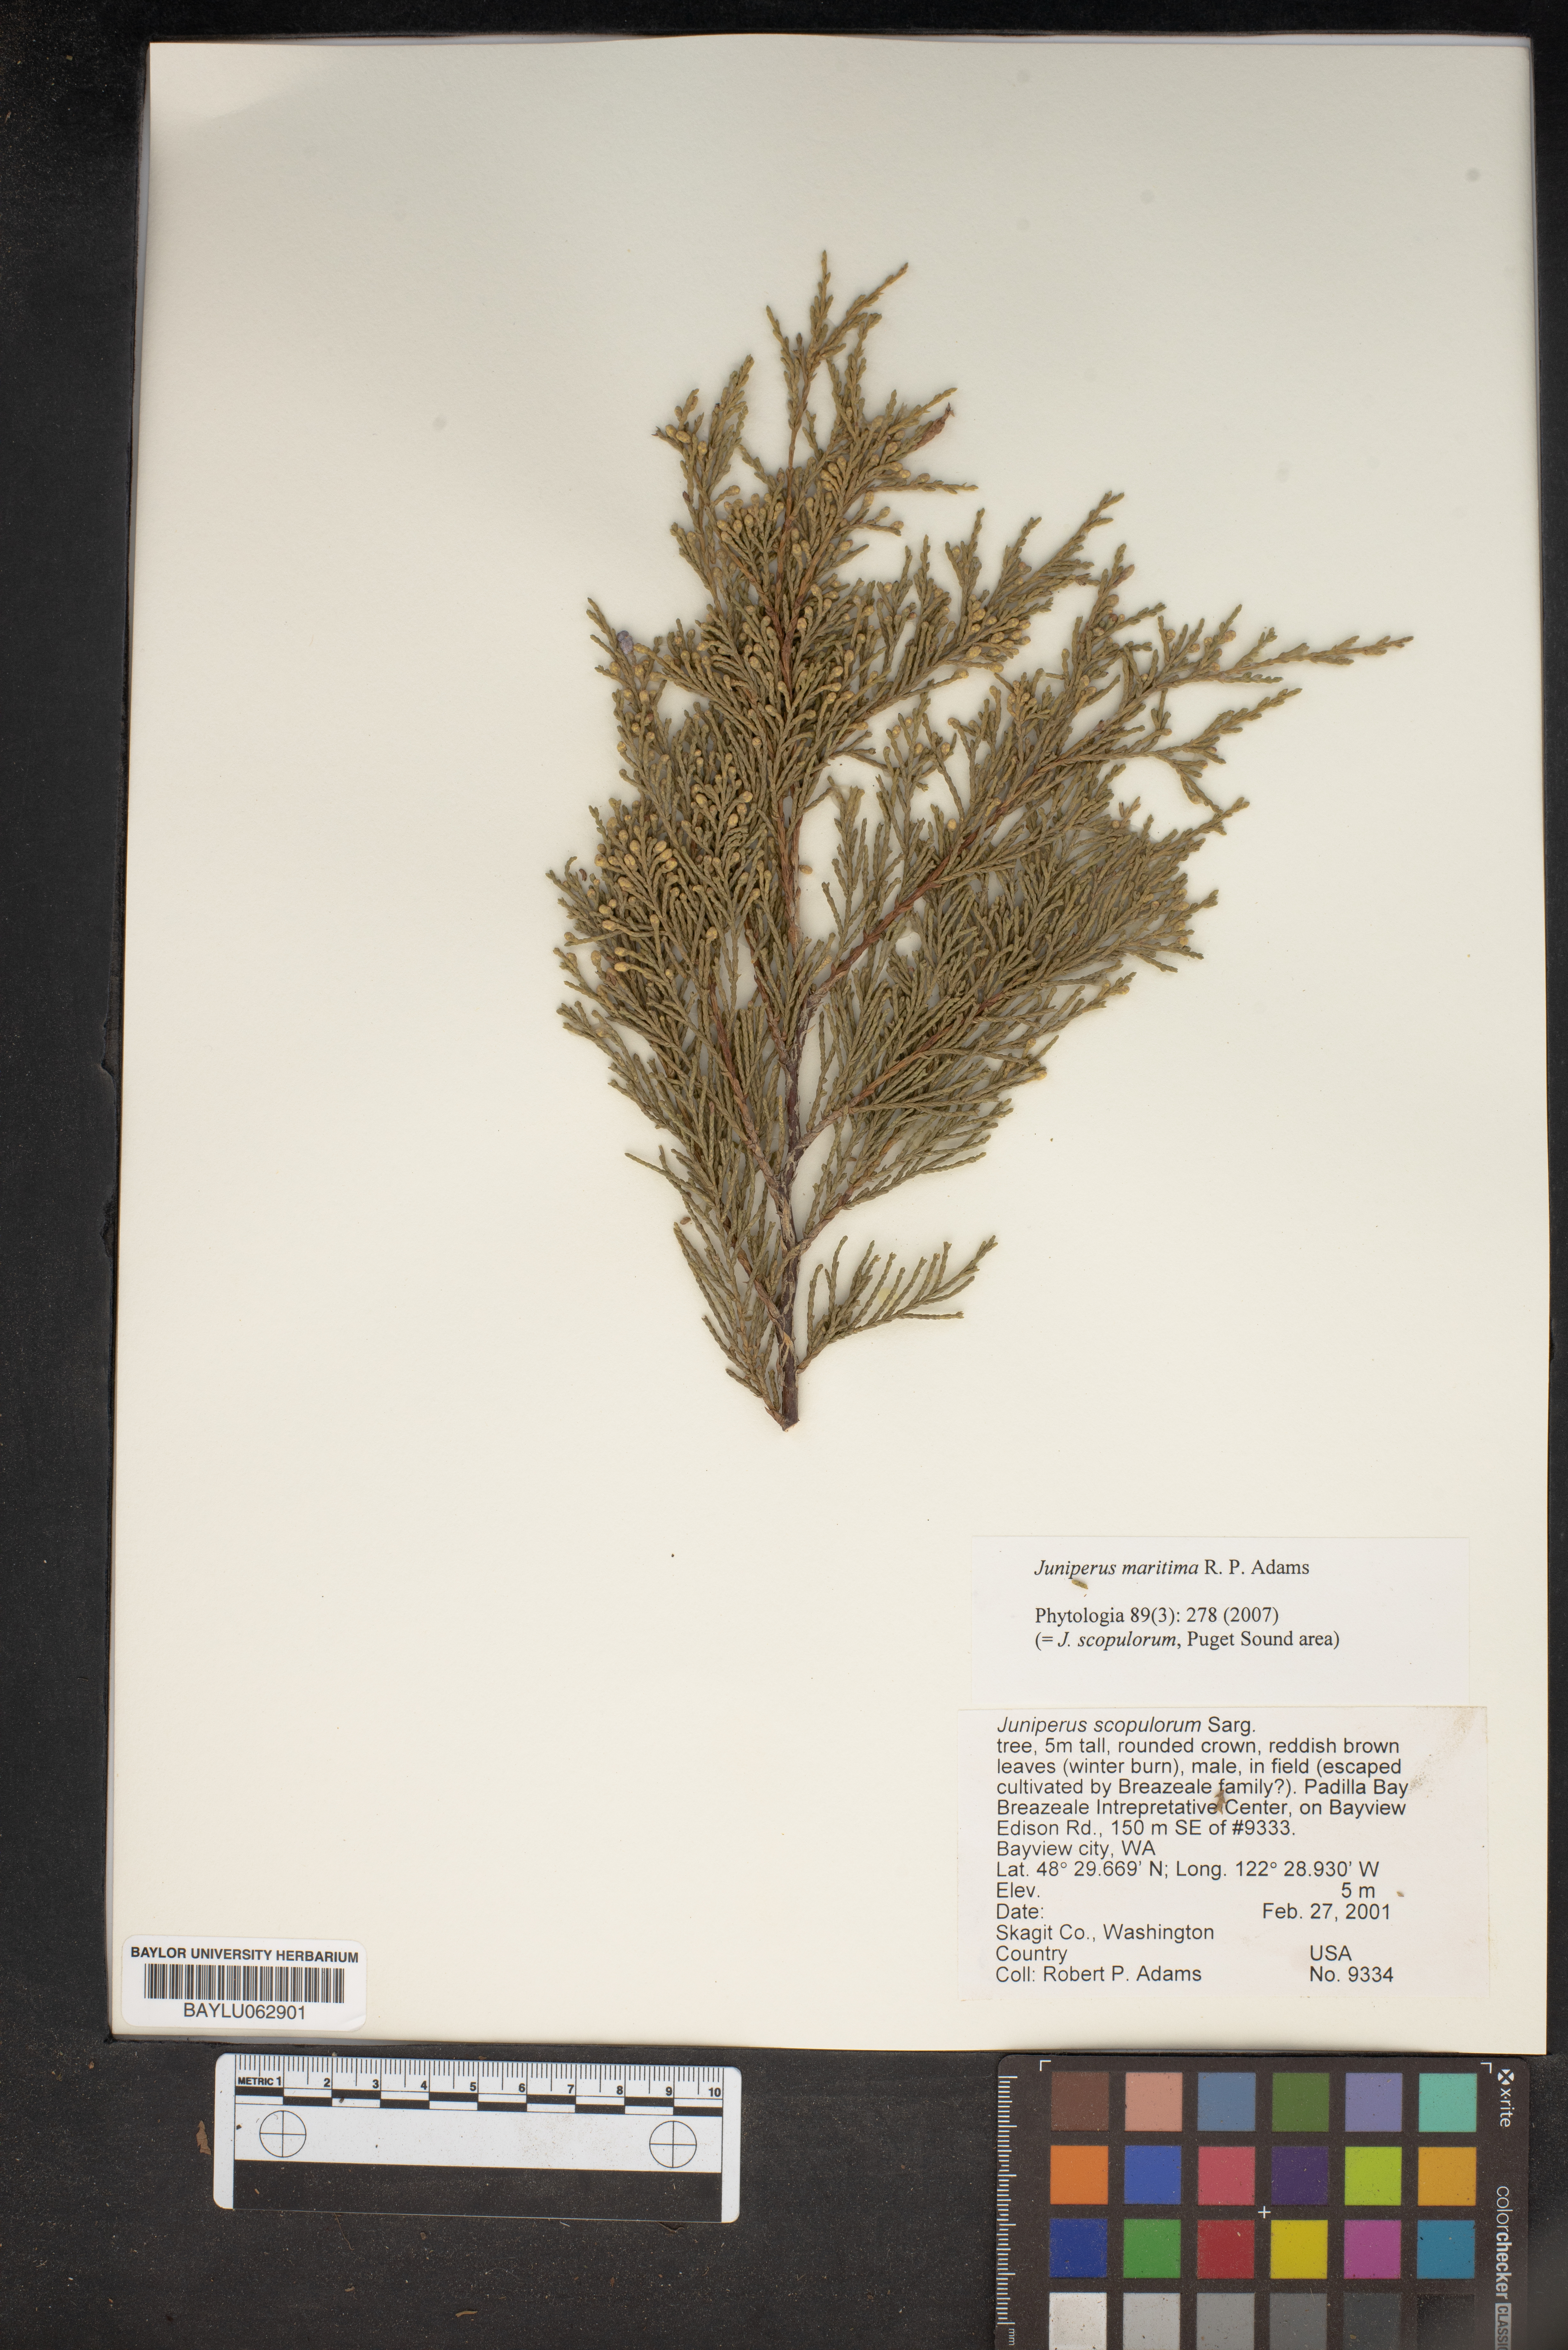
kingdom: Plantae
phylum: Tracheophyta
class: Pinopsida
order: Pinales
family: Cupressaceae
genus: Juniperus
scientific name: Juniperus scopulorum
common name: Rocky mountain juniper
